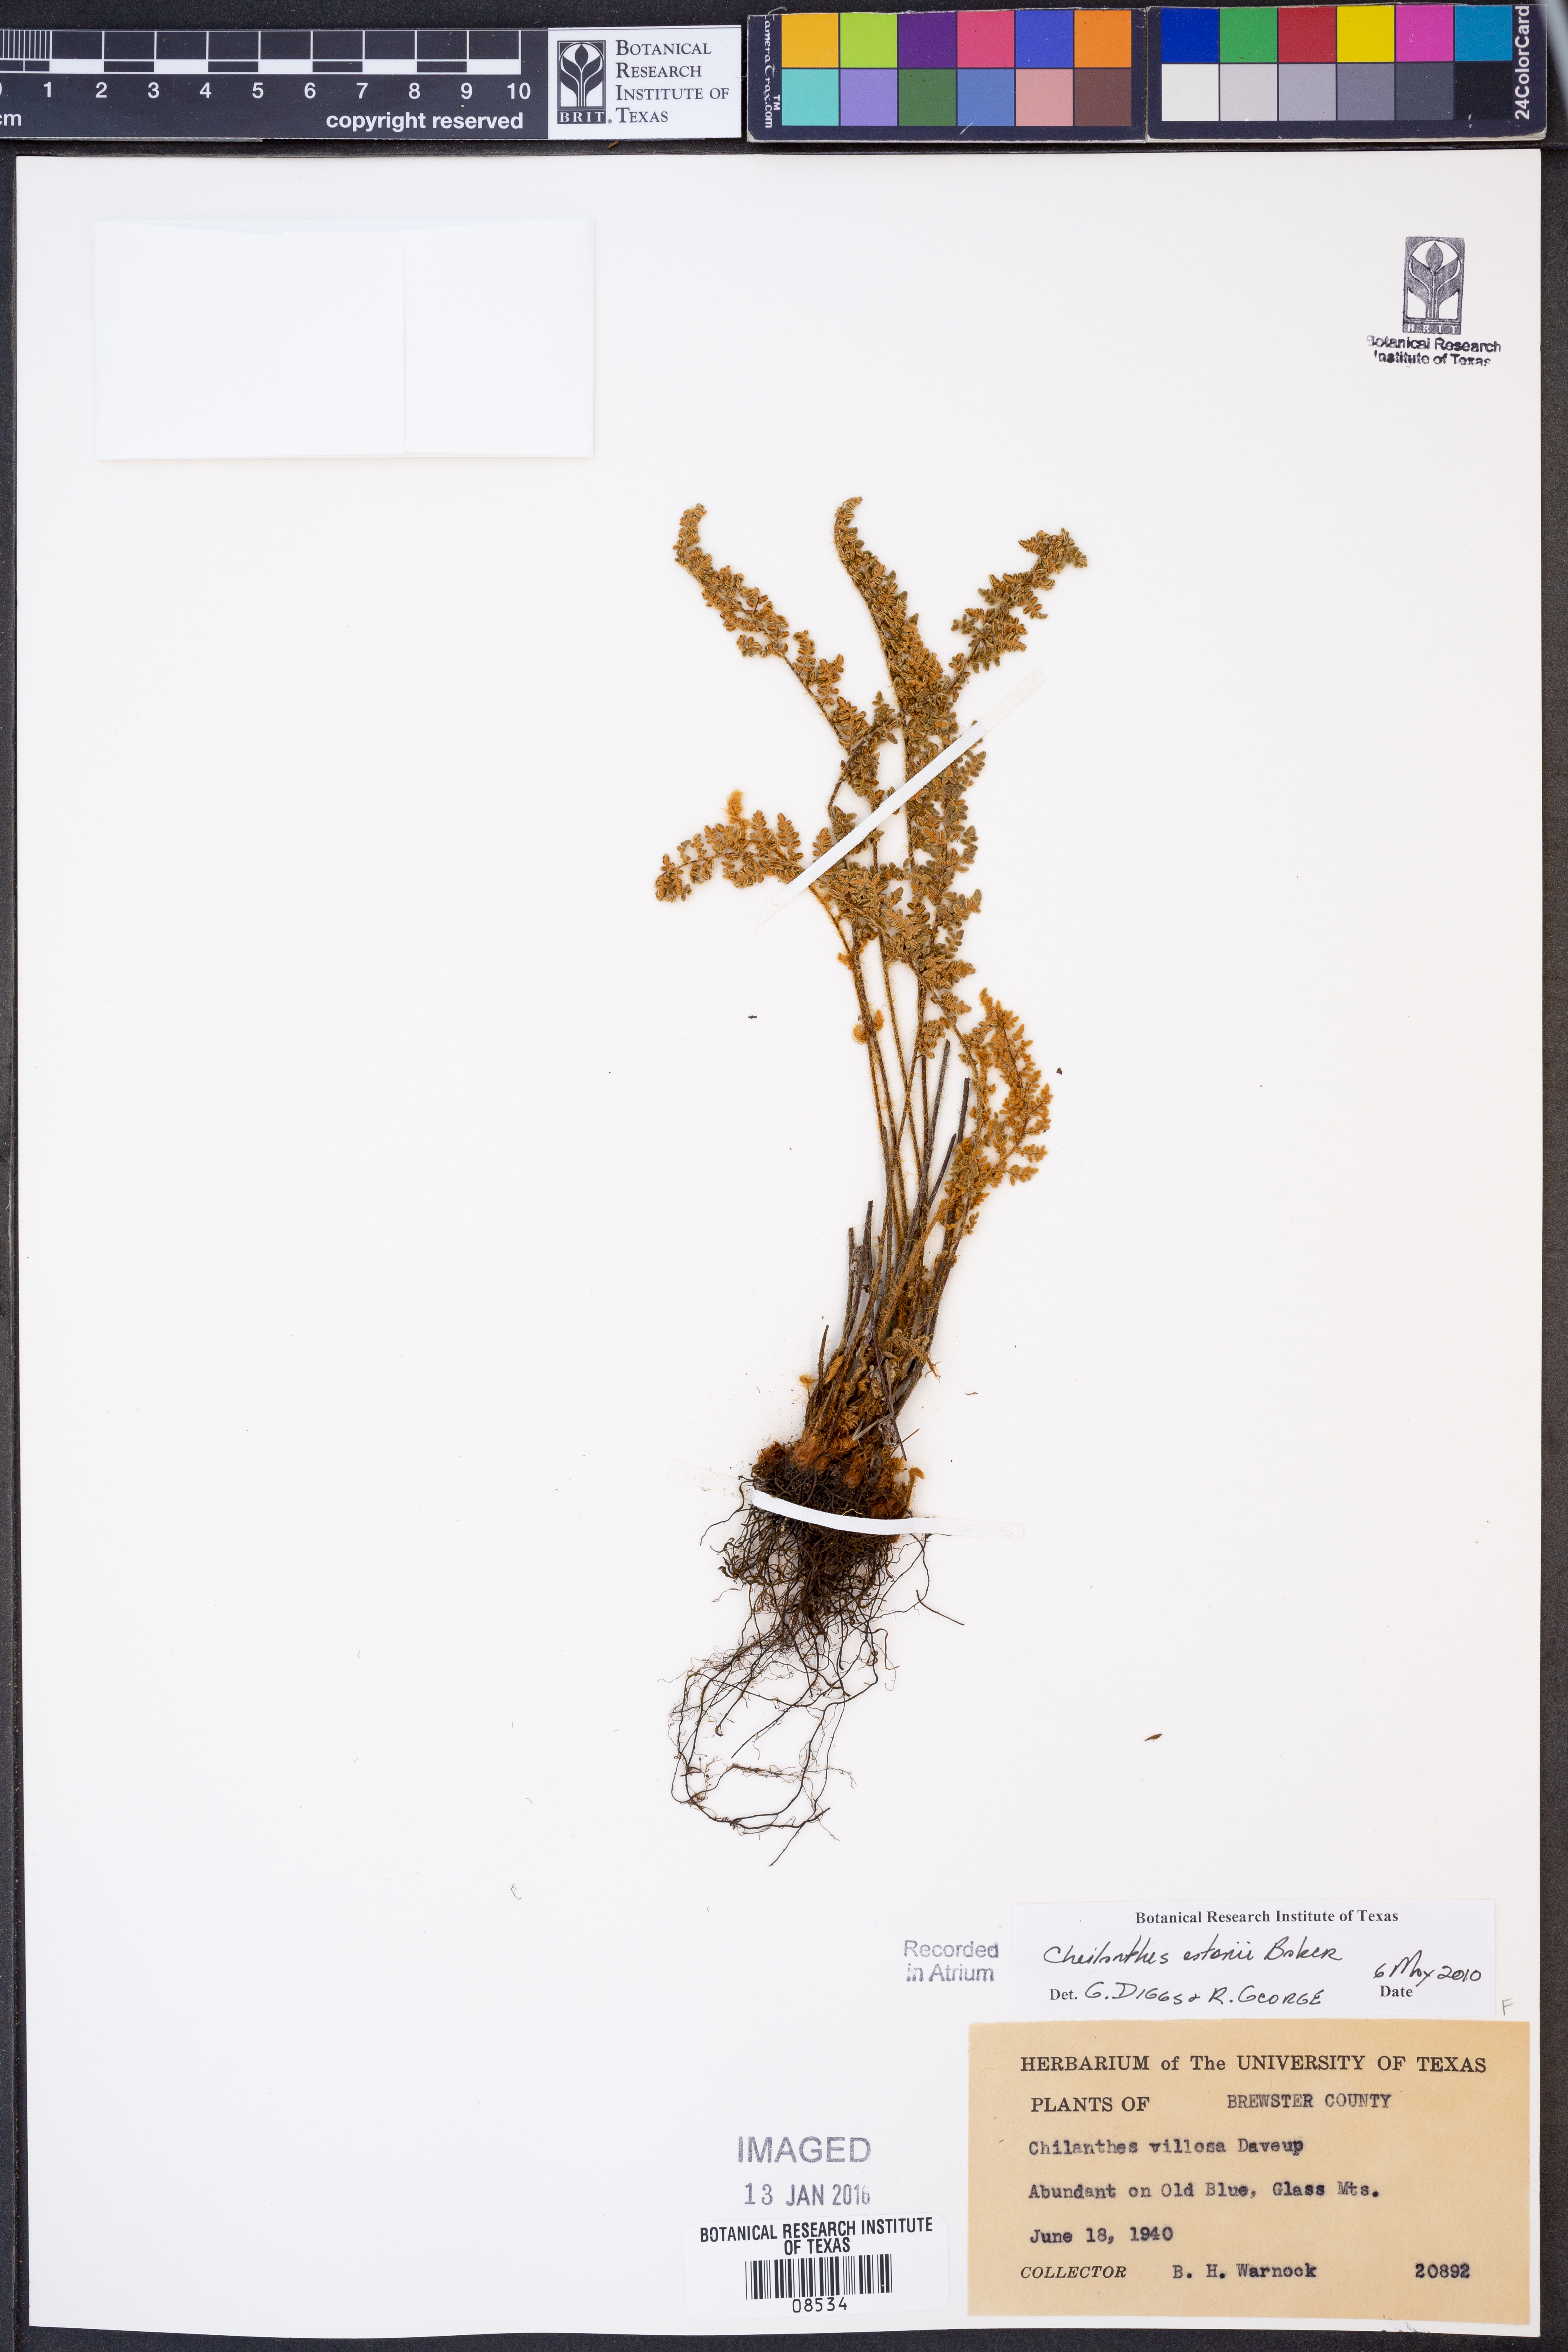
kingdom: Plantae
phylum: Tracheophyta
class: Polypodiopsida
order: Polypodiales
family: Pteridaceae
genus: Myriopteris
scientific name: Myriopteris rufa
